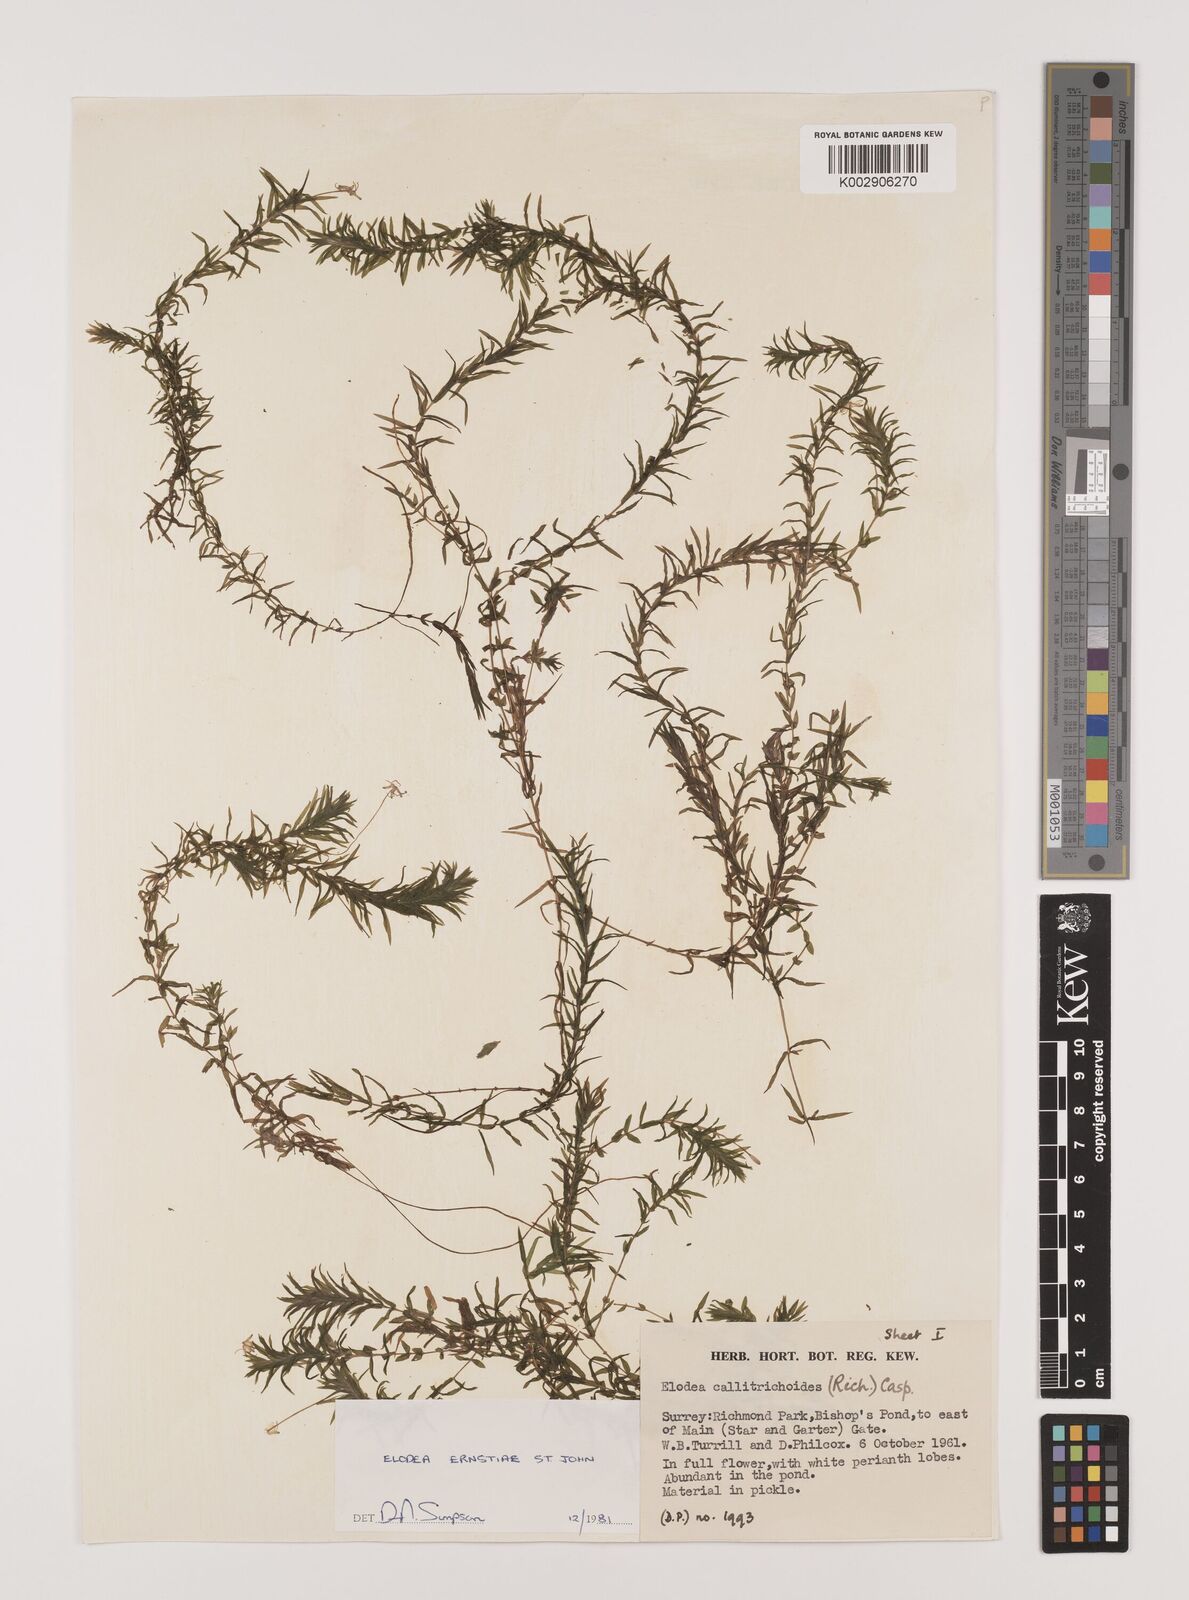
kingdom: Plantae
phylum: Tracheophyta
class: Liliopsida
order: Alismatales
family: Hydrocharitaceae
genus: Elodea
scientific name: Elodea callitrichoides
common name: South american waterweed
